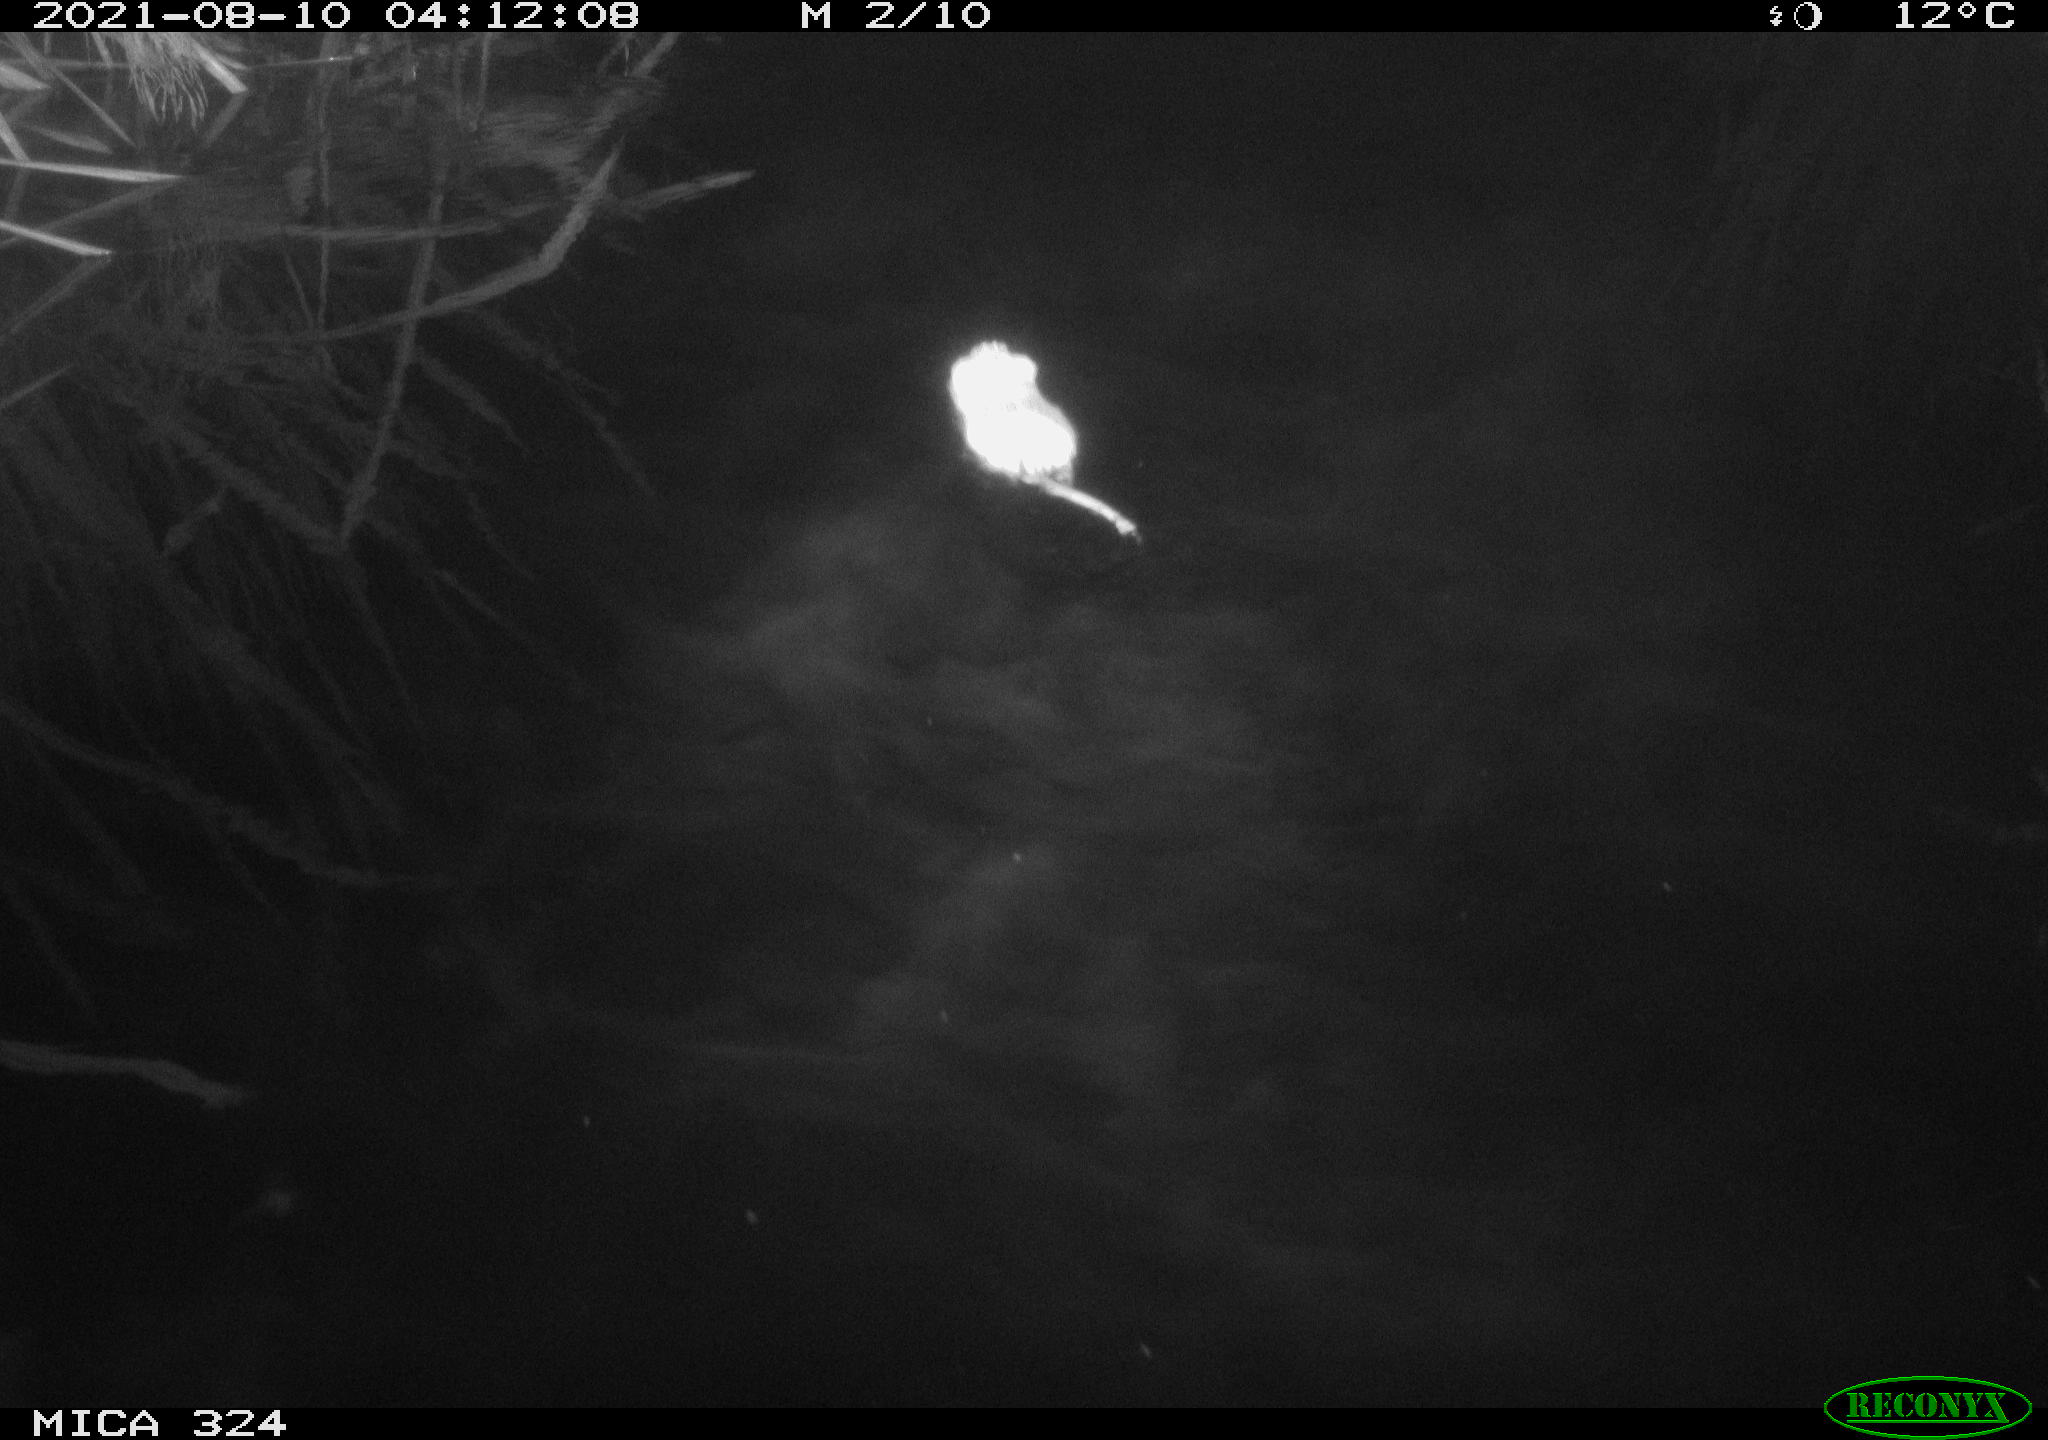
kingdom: Animalia
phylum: Chordata
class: Mammalia
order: Rodentia
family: Cricetidae
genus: Ondatra
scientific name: Ondatra zibethicus
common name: Muskrat
